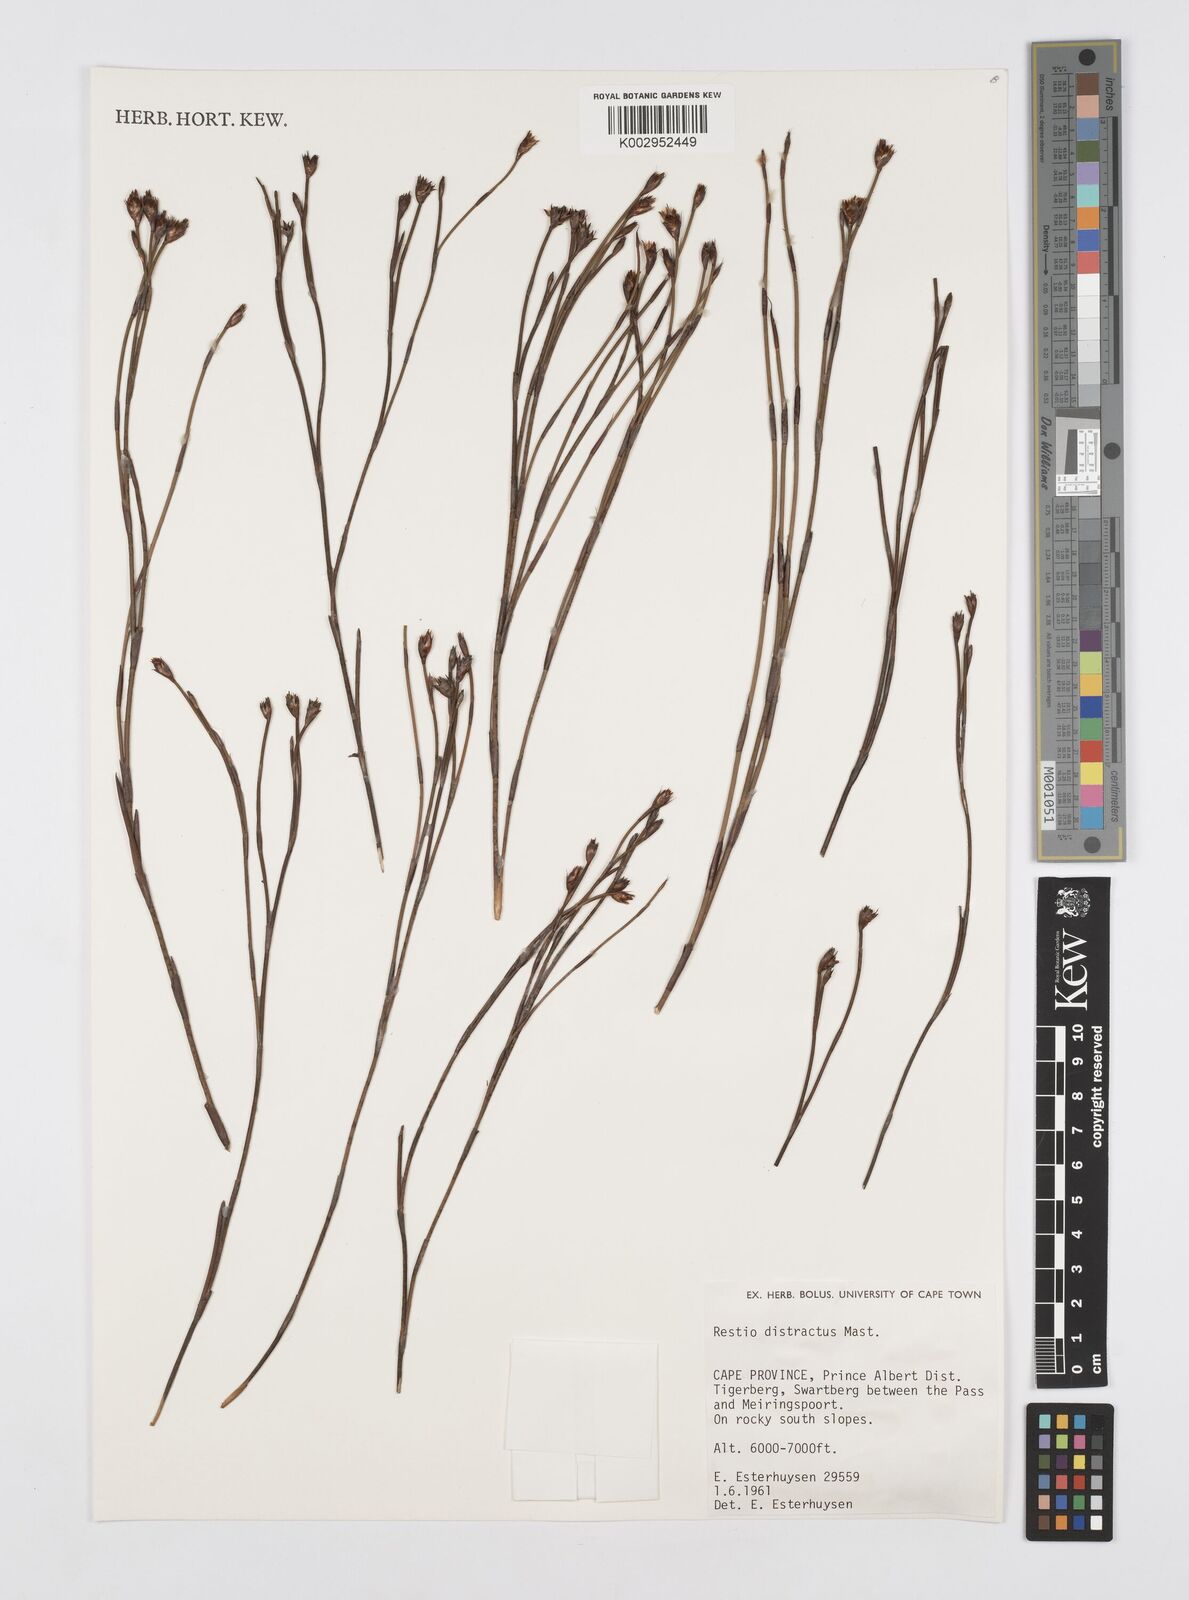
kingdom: Plantae
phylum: Tracheophyta
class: Liliopsida
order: Poales
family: Restionaceae
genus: Restio
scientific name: Restio distractus
